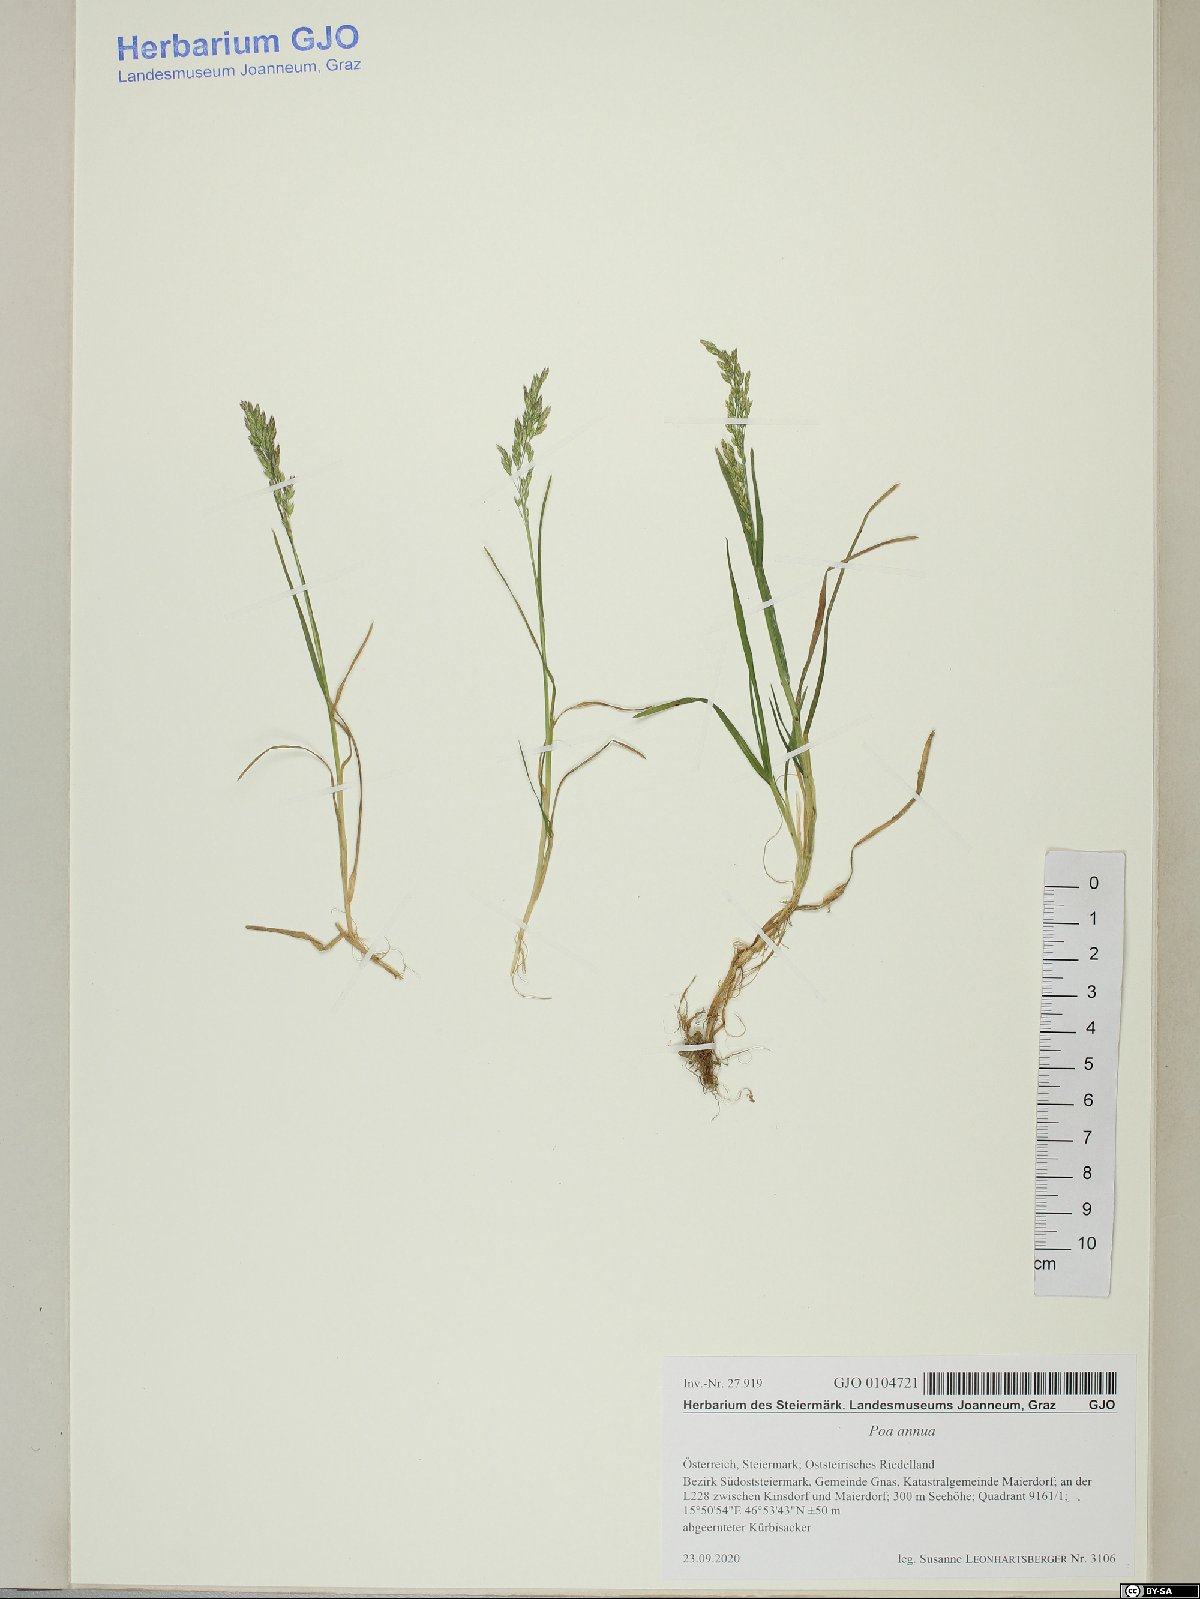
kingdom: Plantae
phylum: Tracheophyta
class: Liliopsida
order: Poales
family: Poaceae
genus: Poa
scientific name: Poa annua
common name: Annual bluegrass
